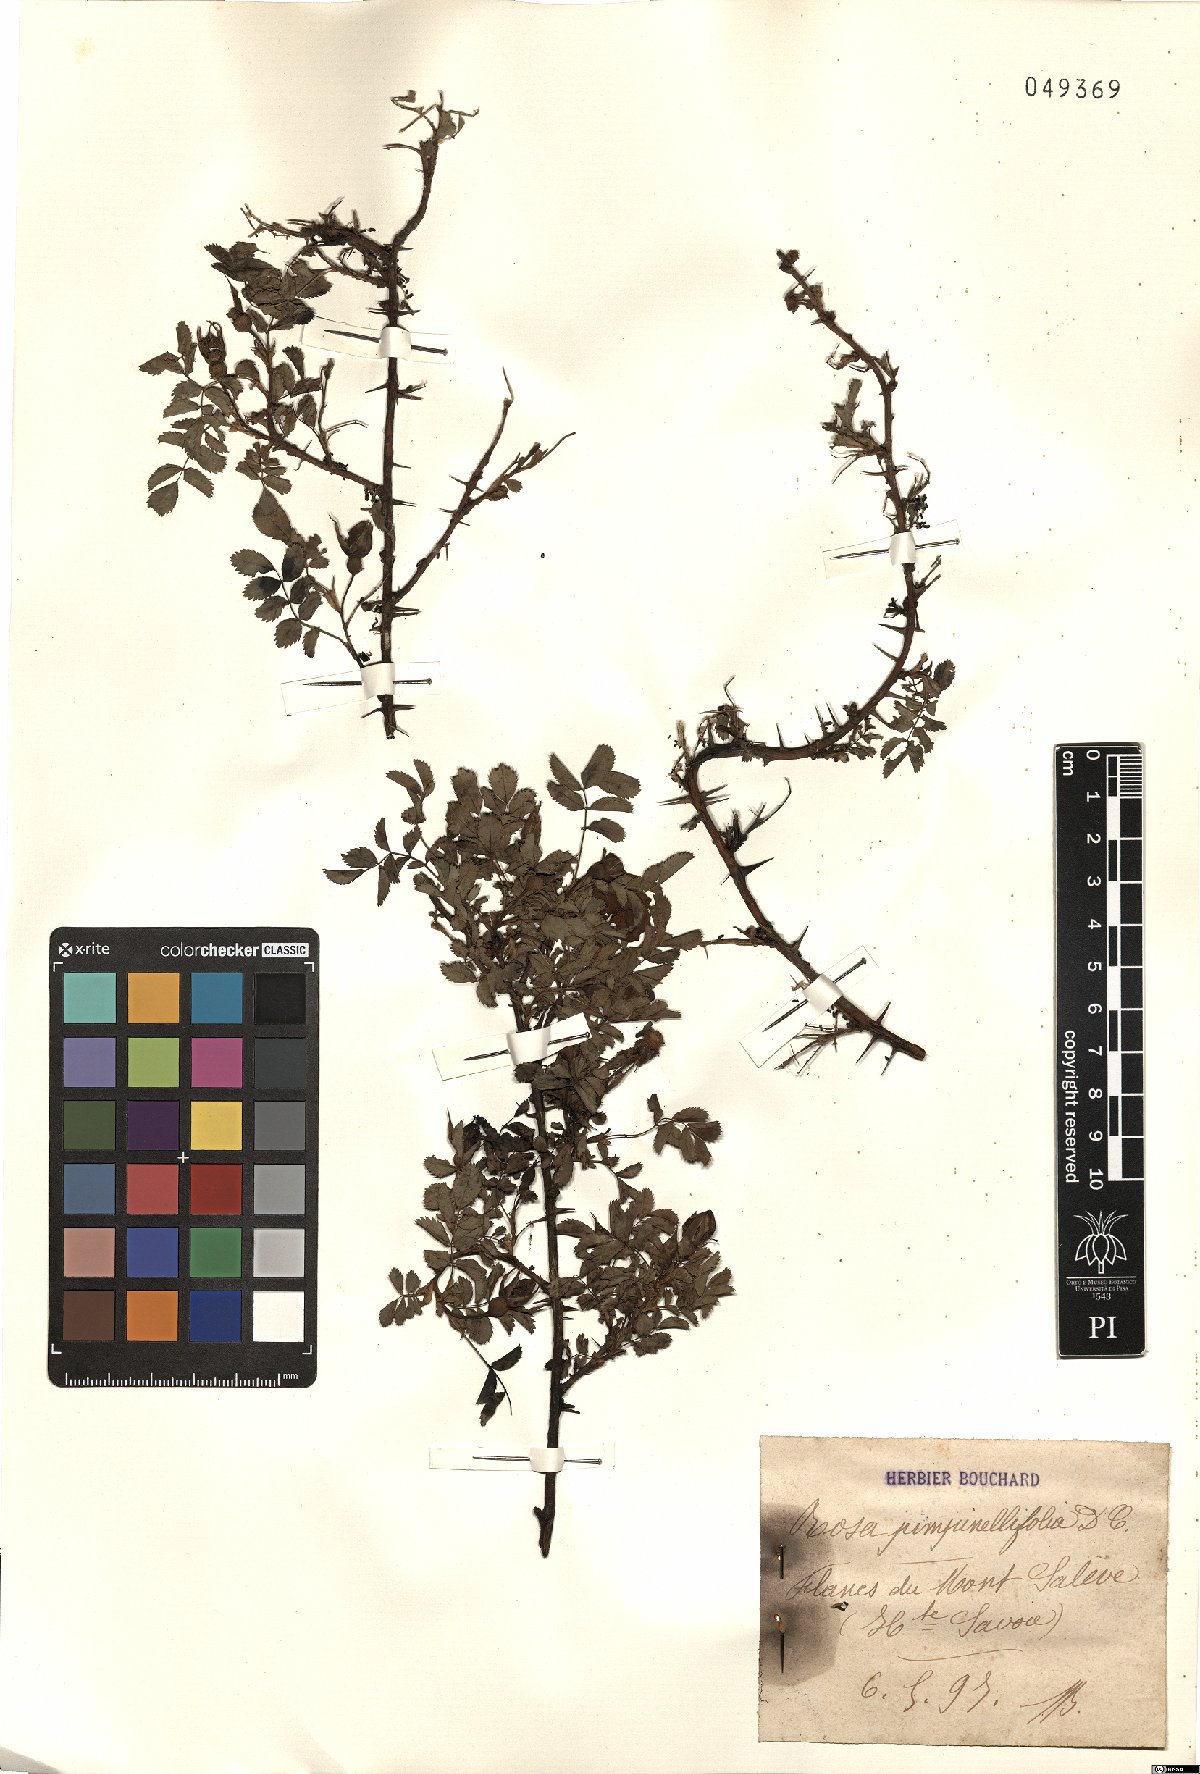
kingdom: Plantae
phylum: Tracheophyta
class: Magnoliopsida
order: Rosales
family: Rosaceae
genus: Rosa
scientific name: Rosa spinosissima
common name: Burnet rose
